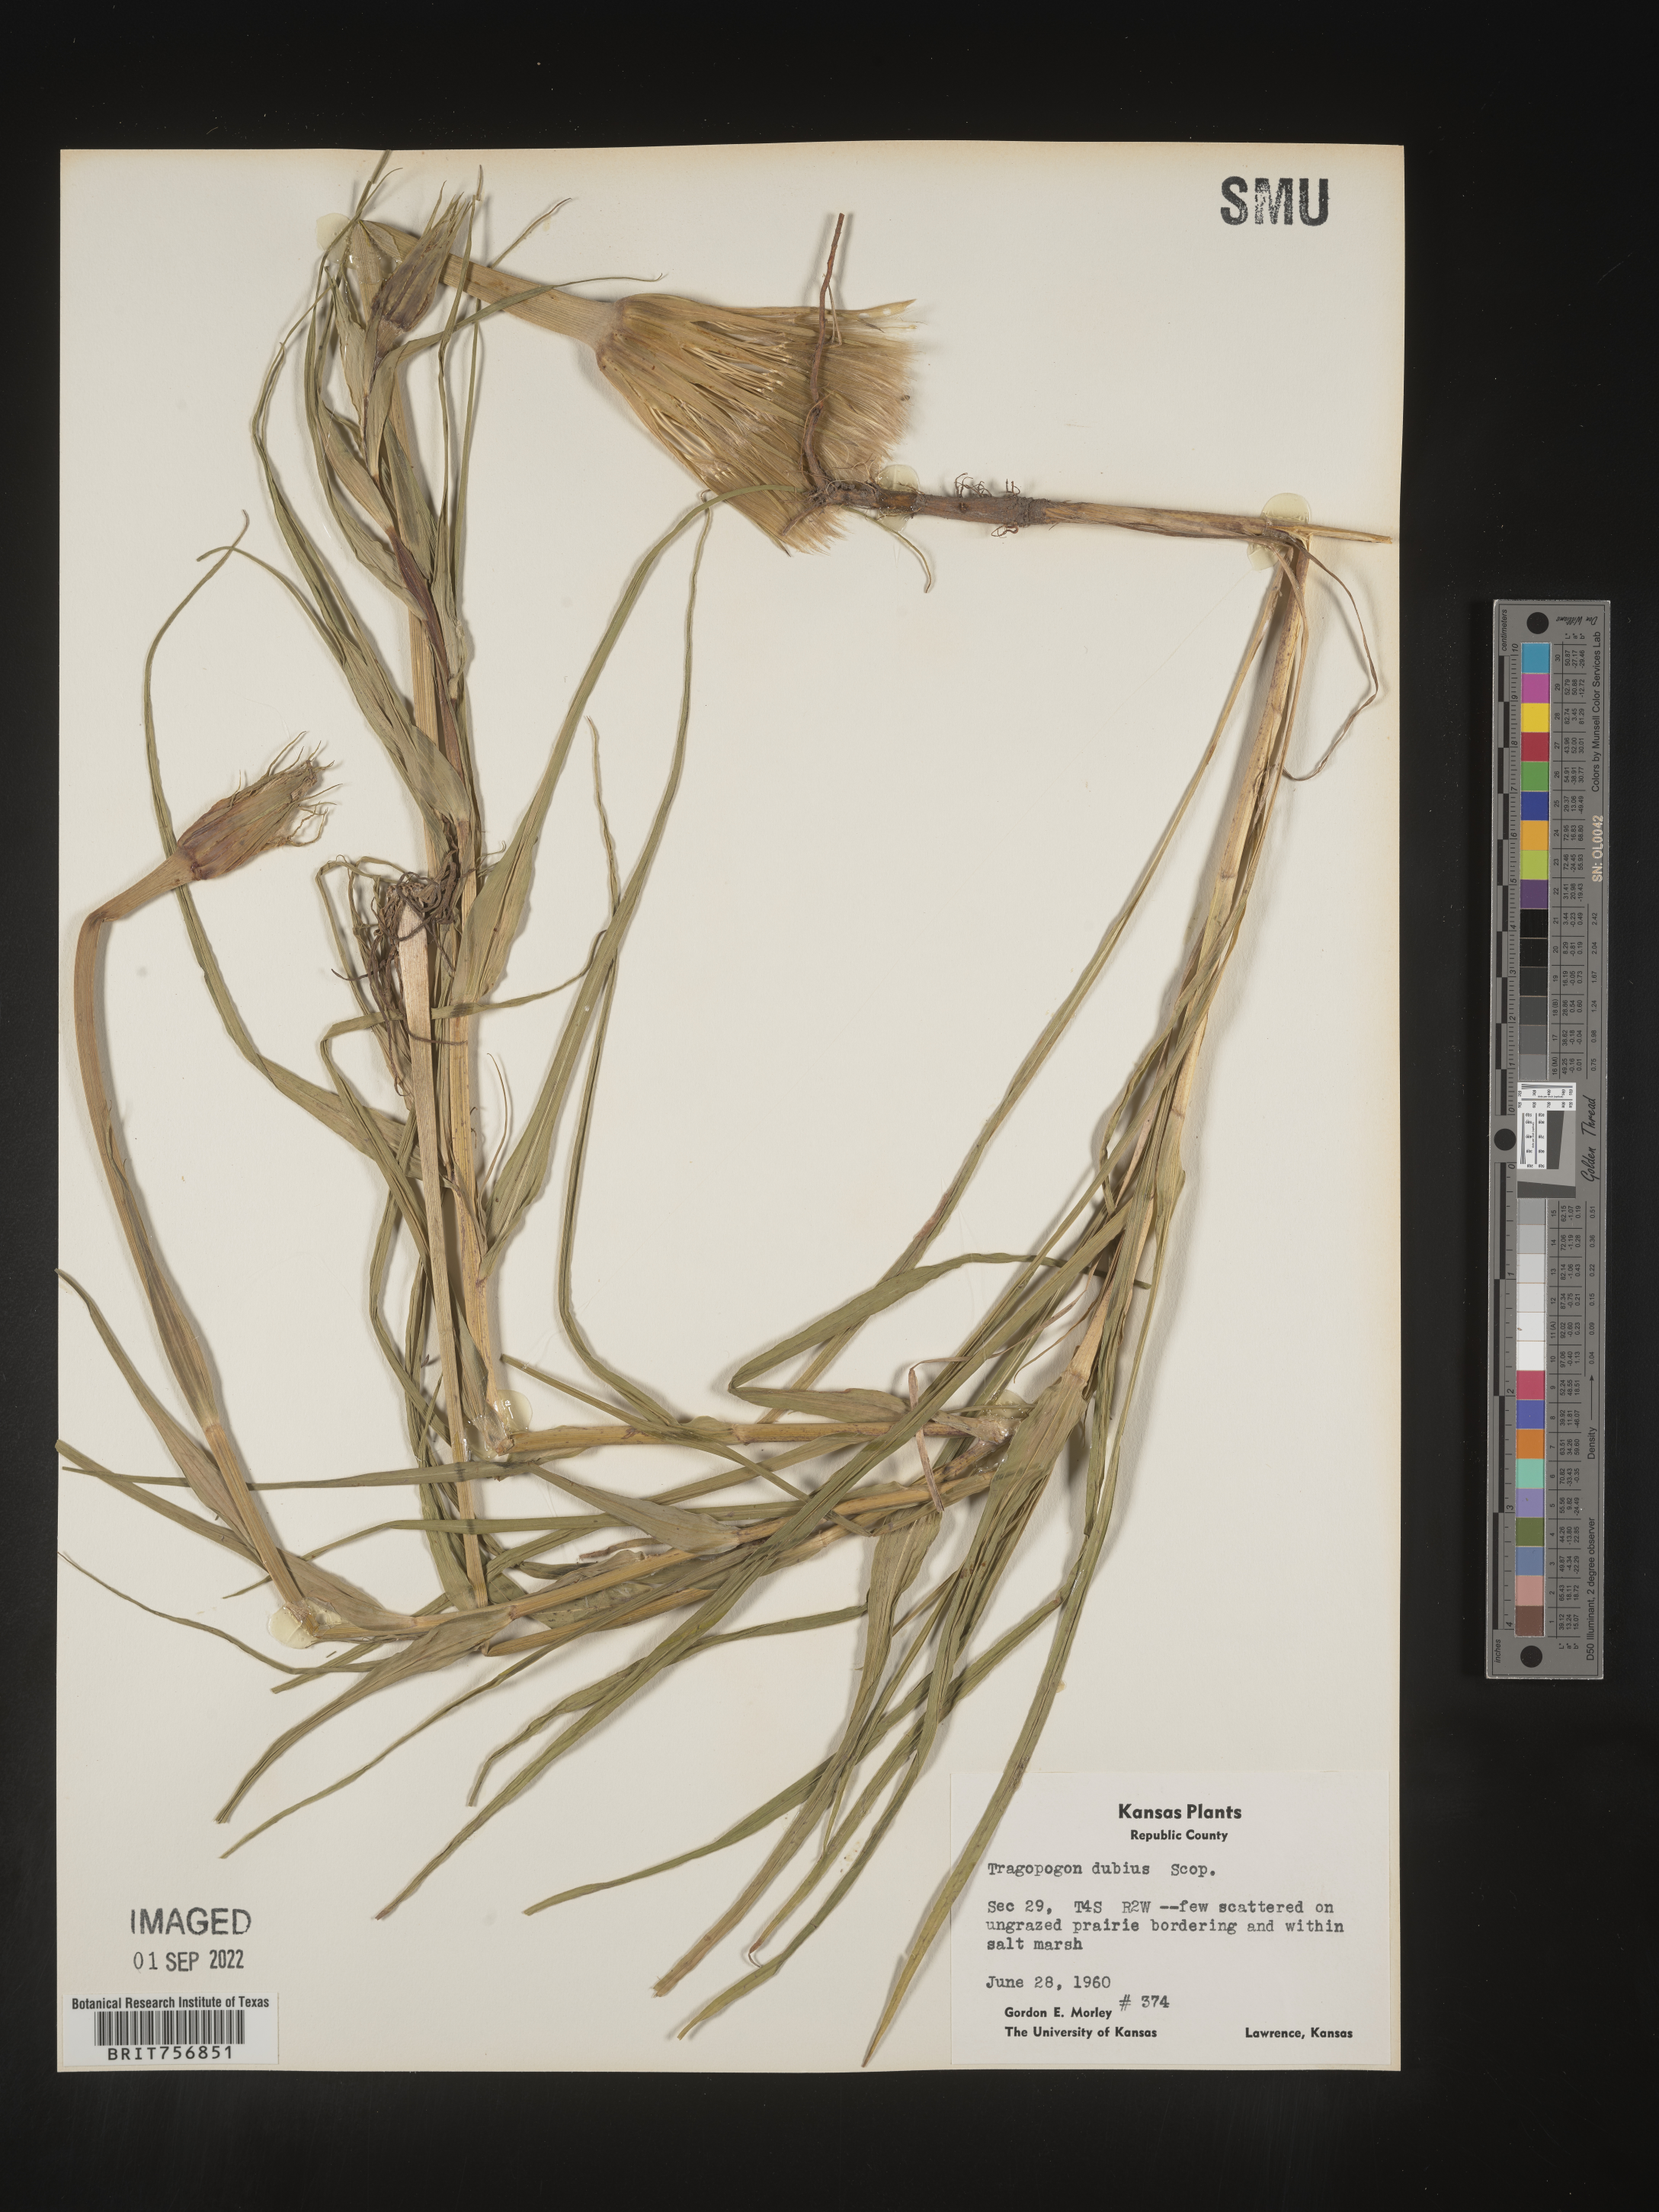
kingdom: Plantae
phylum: Tracheophyta
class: Magnoliopsida
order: Asterales
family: Asteraceae
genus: Tragopogon
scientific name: Tragopogon dubius
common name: Yellow salsify
